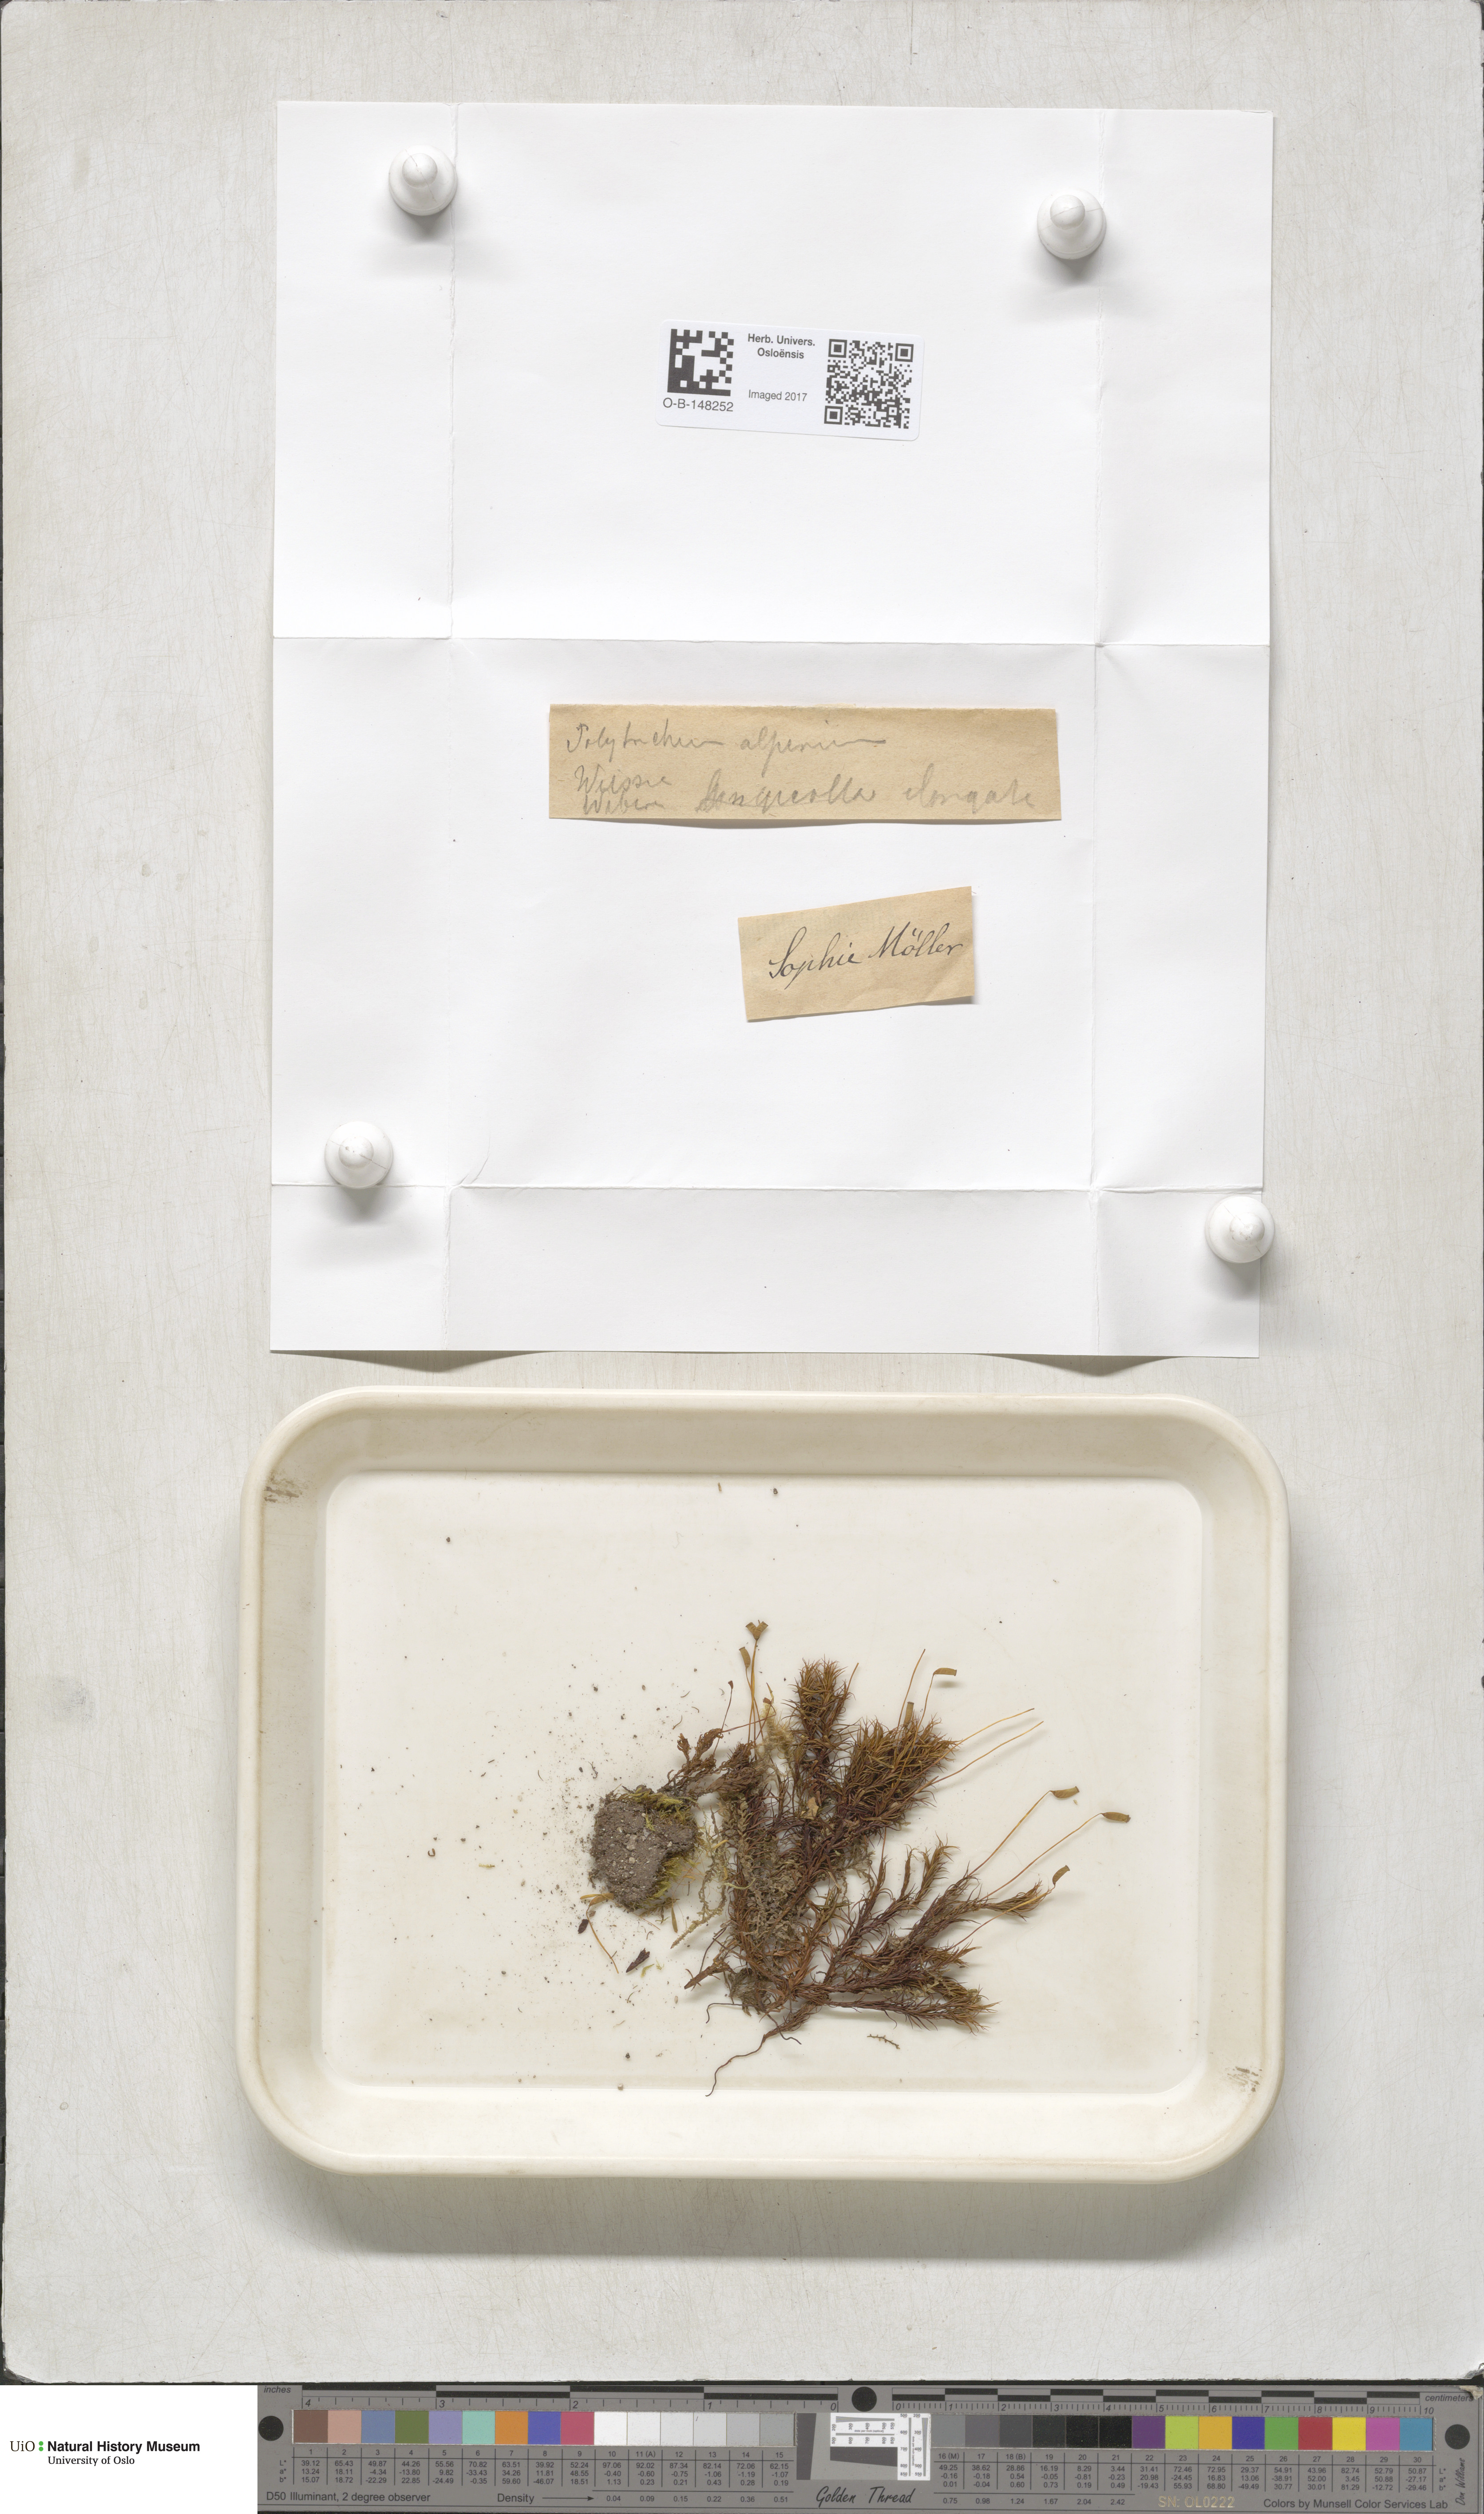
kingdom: Plantae
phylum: Bryophyta
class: Polytrichopsida
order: Polytrichales
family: Polytrichaceae
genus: Polytrichastrum
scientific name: Polytrichastrum alpinum
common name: Alpine haircap
